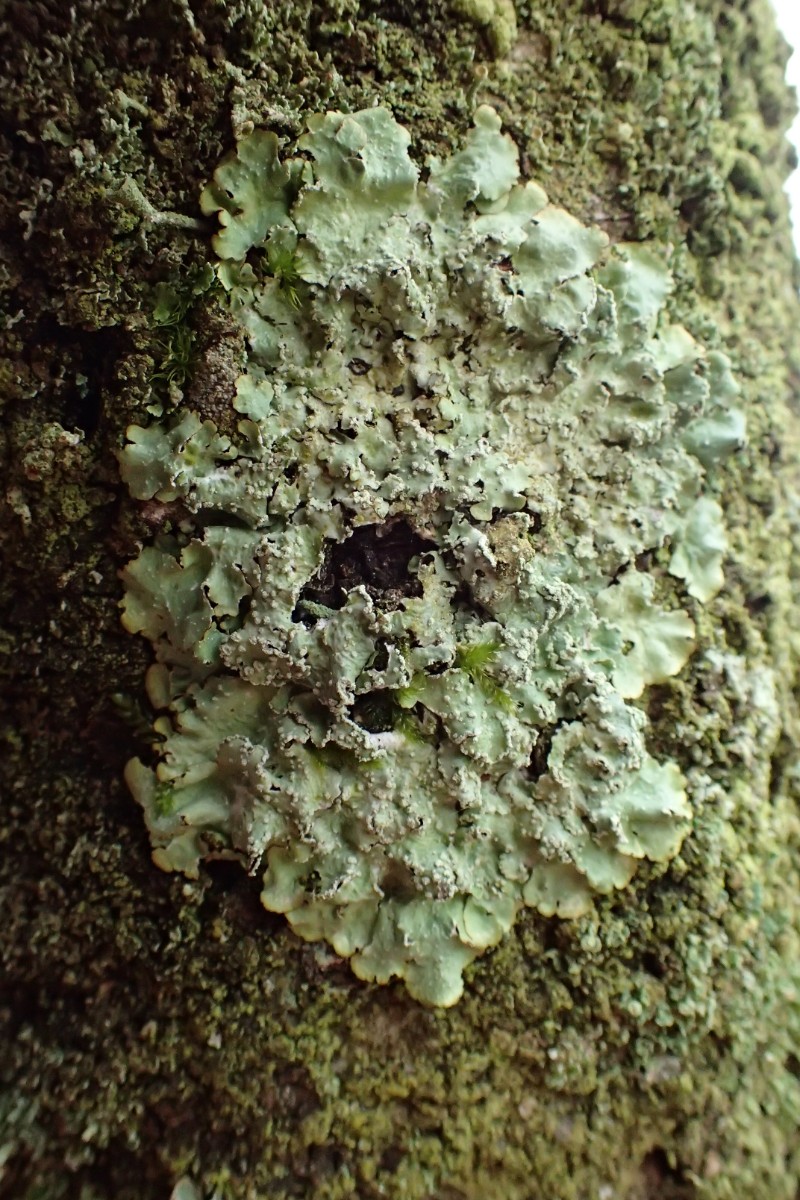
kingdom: Fungi
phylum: Ascomycota
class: Lecanoromycetes
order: Lecanorales
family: Parmeliaceae
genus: Punctelia
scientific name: Punctelia subrudecta
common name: punkt-skållav
